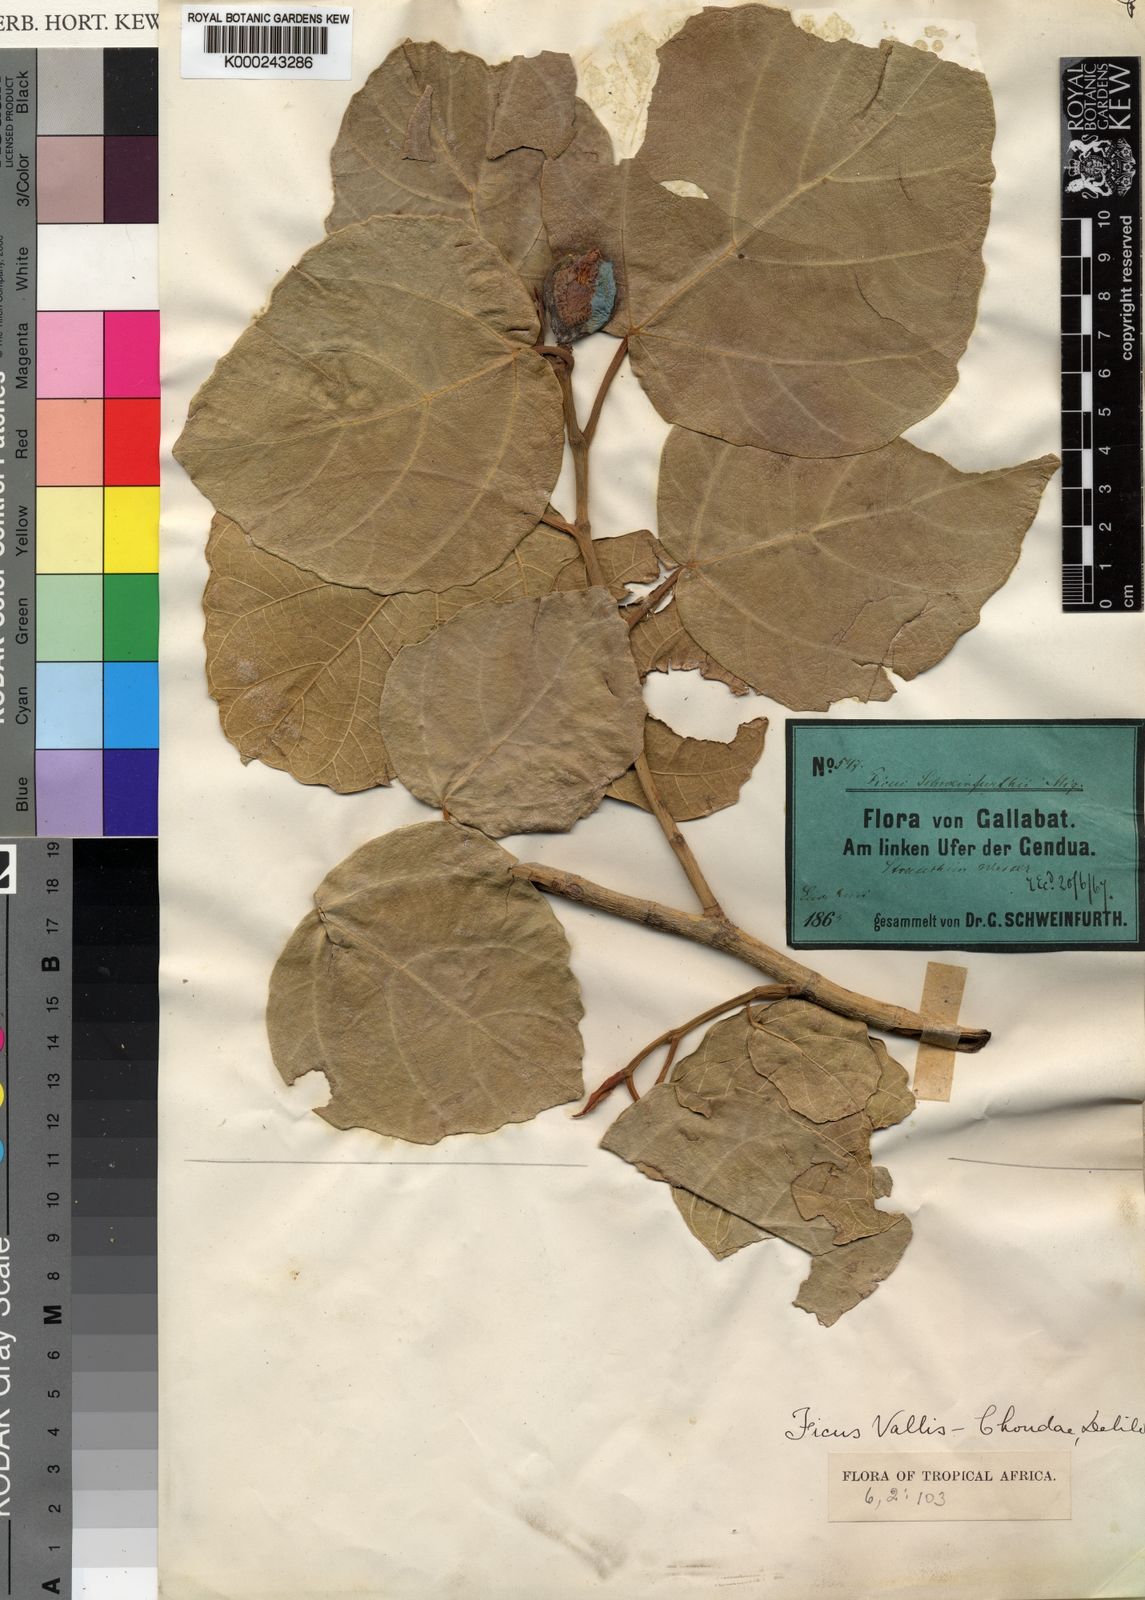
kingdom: Plantae
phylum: Tracheophyta
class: Magnoliopsida
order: Rosales
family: Moraceae
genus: Ficus
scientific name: Ficus vallis-choudae
